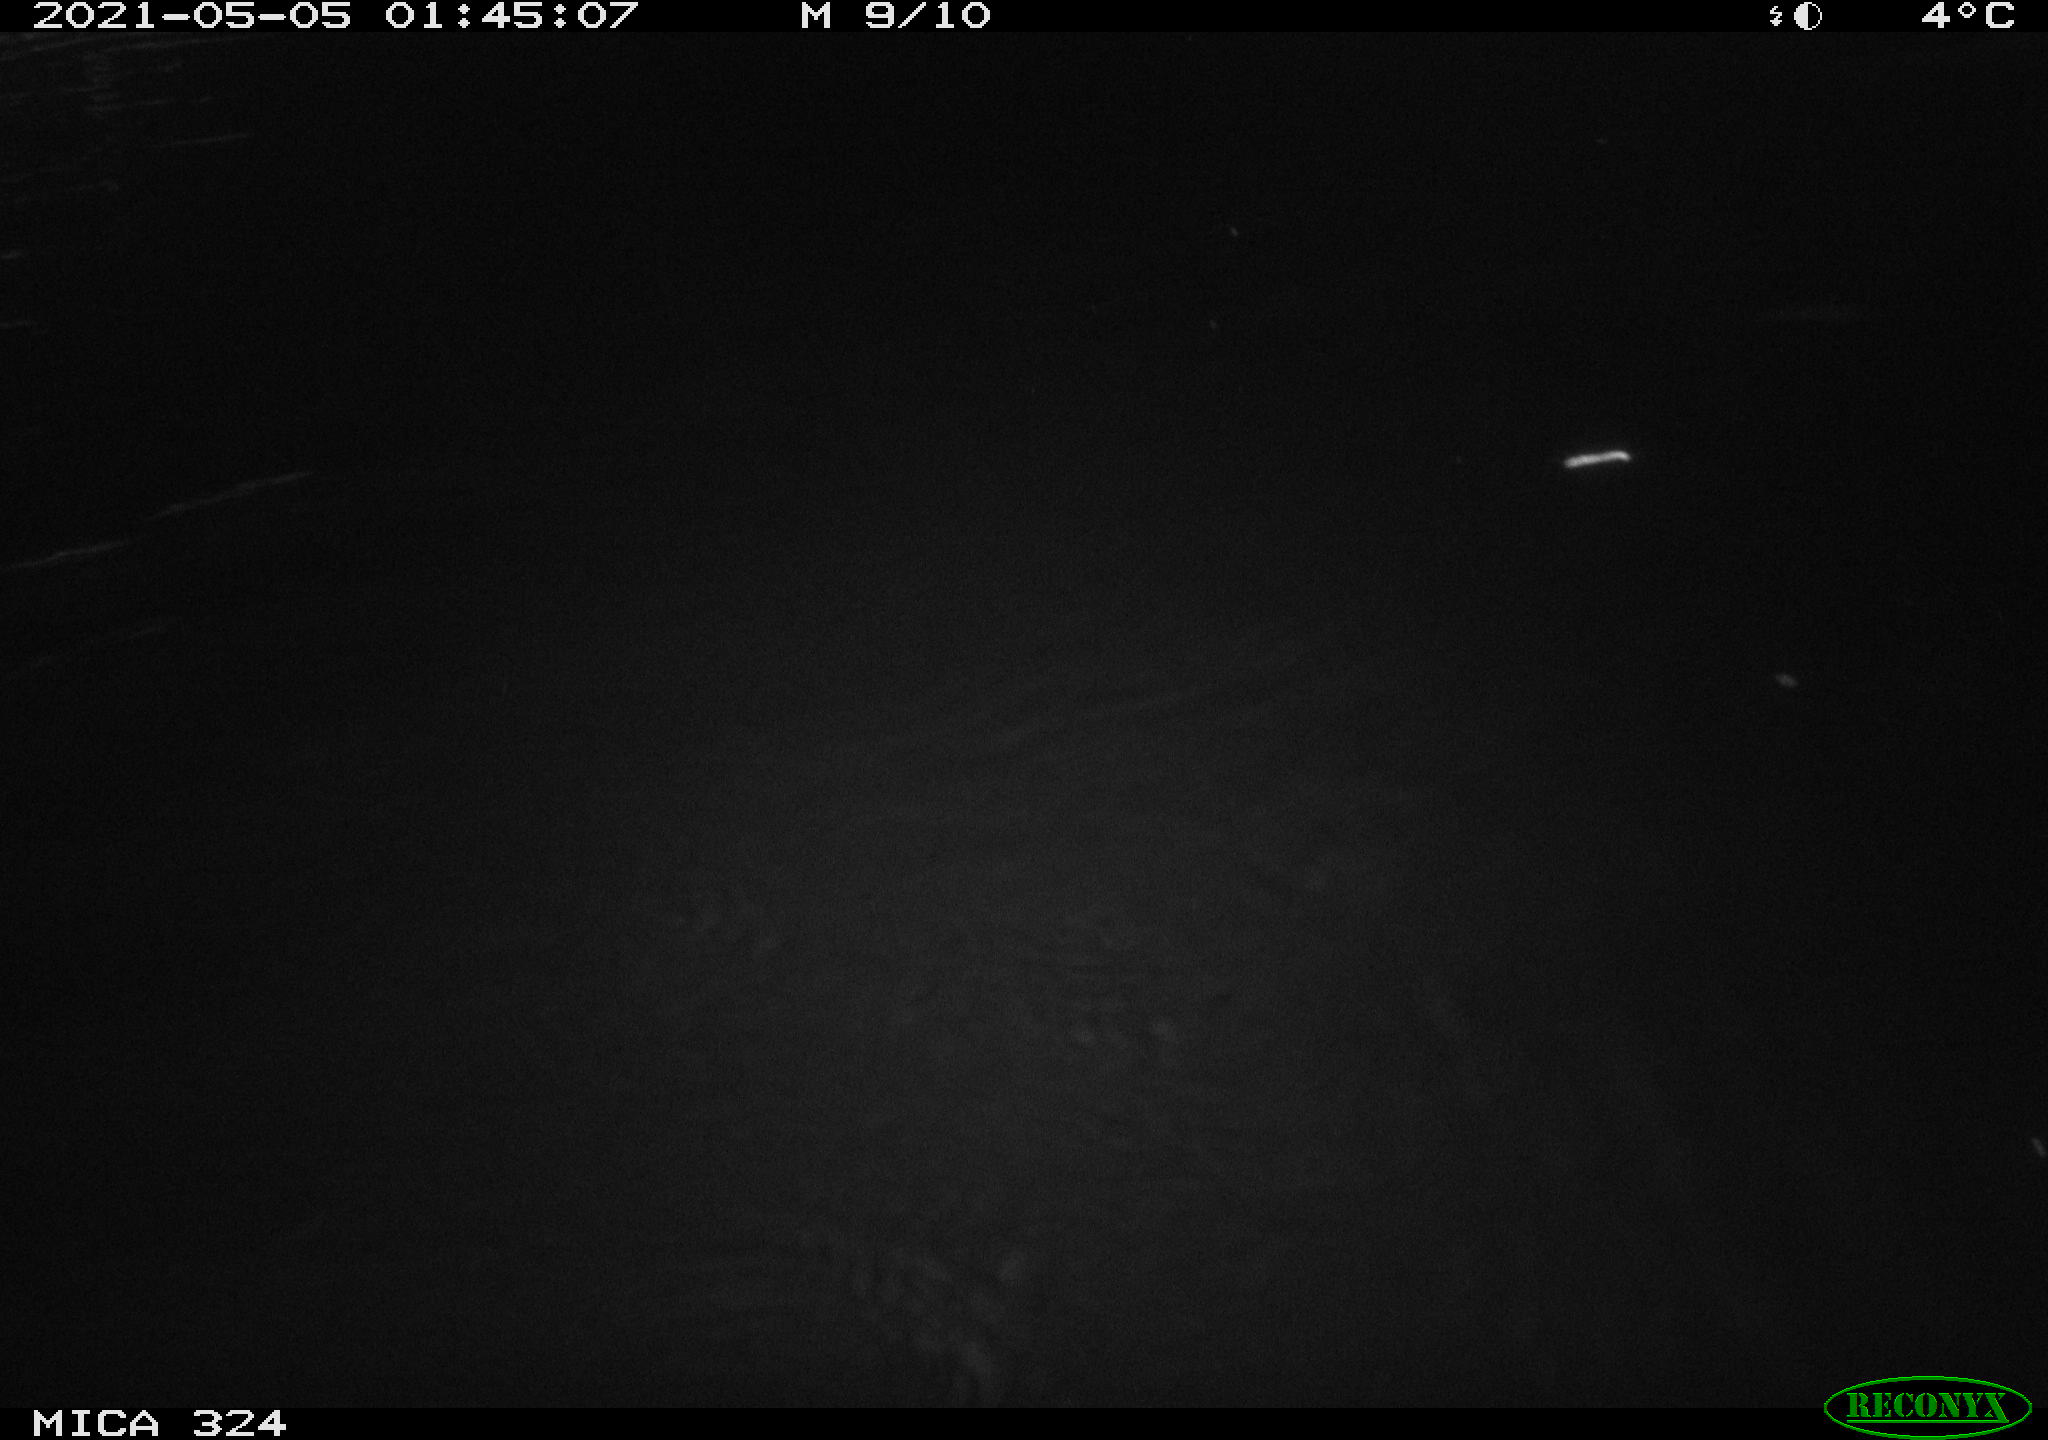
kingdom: Animalia
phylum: Chordata
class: Mammalia
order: Rodentia
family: Myocastoridae
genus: Myocastor
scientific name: Myocastor coypus
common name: Coypu
